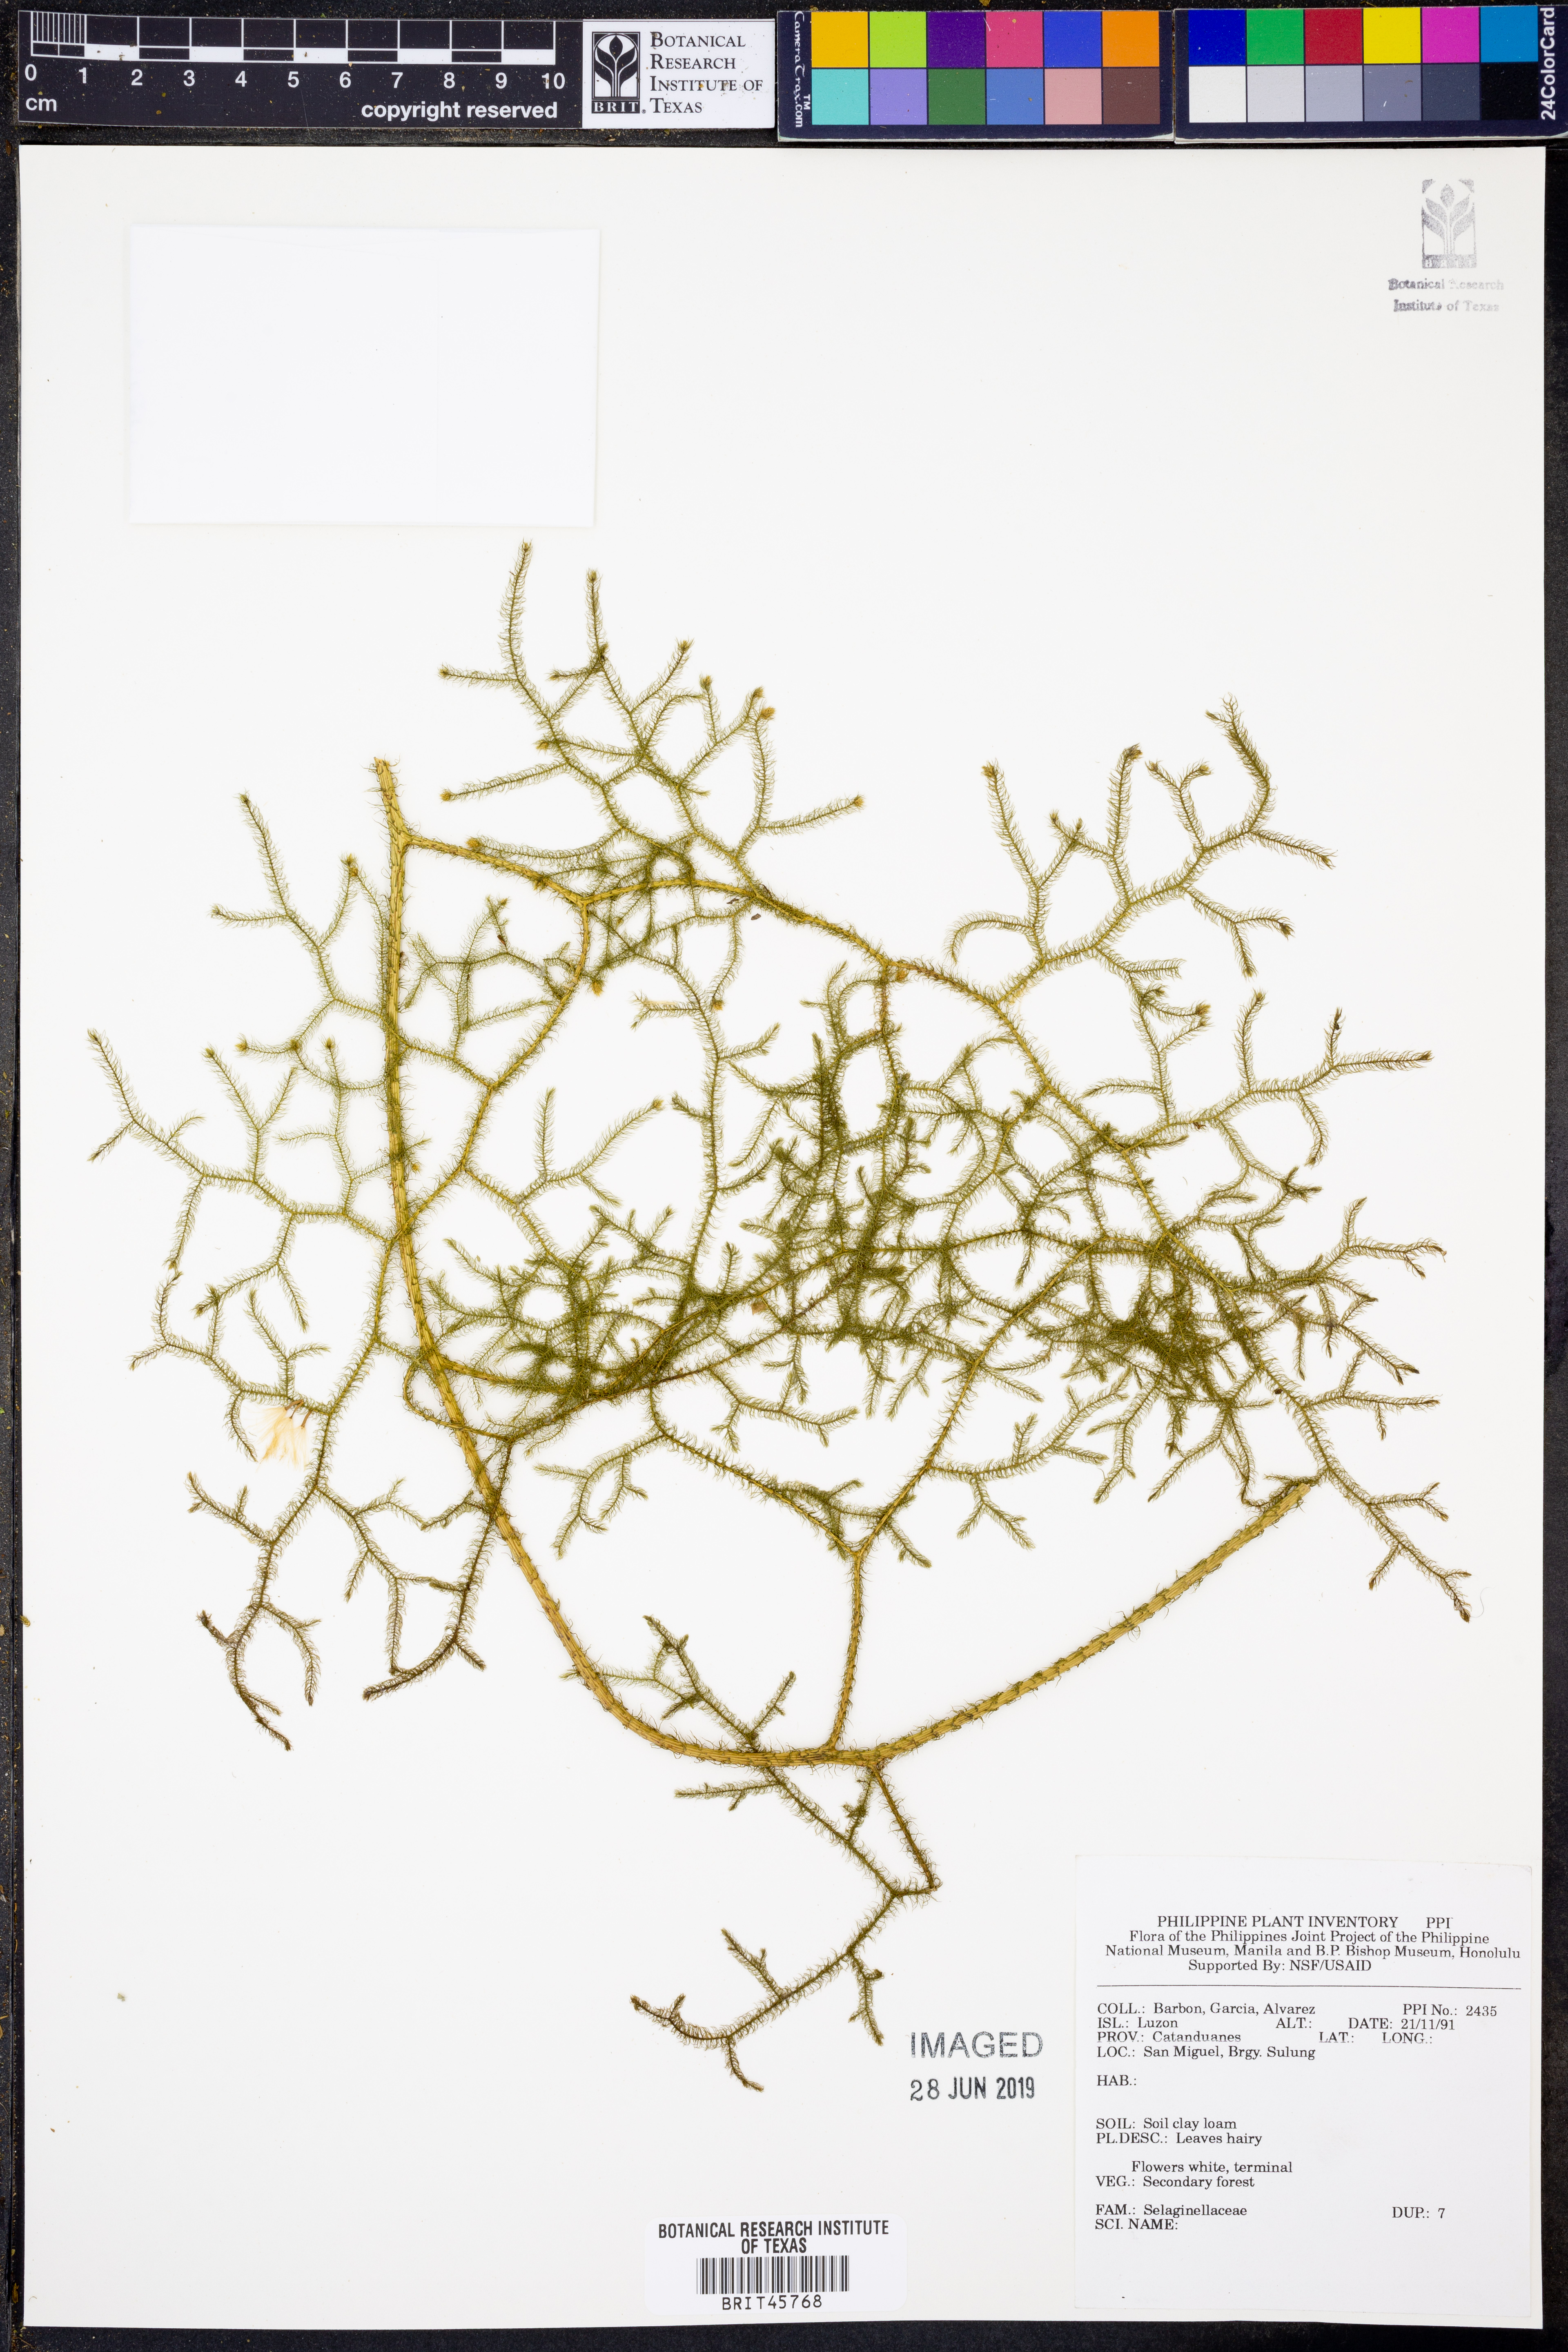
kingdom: Plantae
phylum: Tracheophyta
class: Lycopodiopsida
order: Selaginellales
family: Selaginellaceae
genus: Selaginella
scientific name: Selaginella
